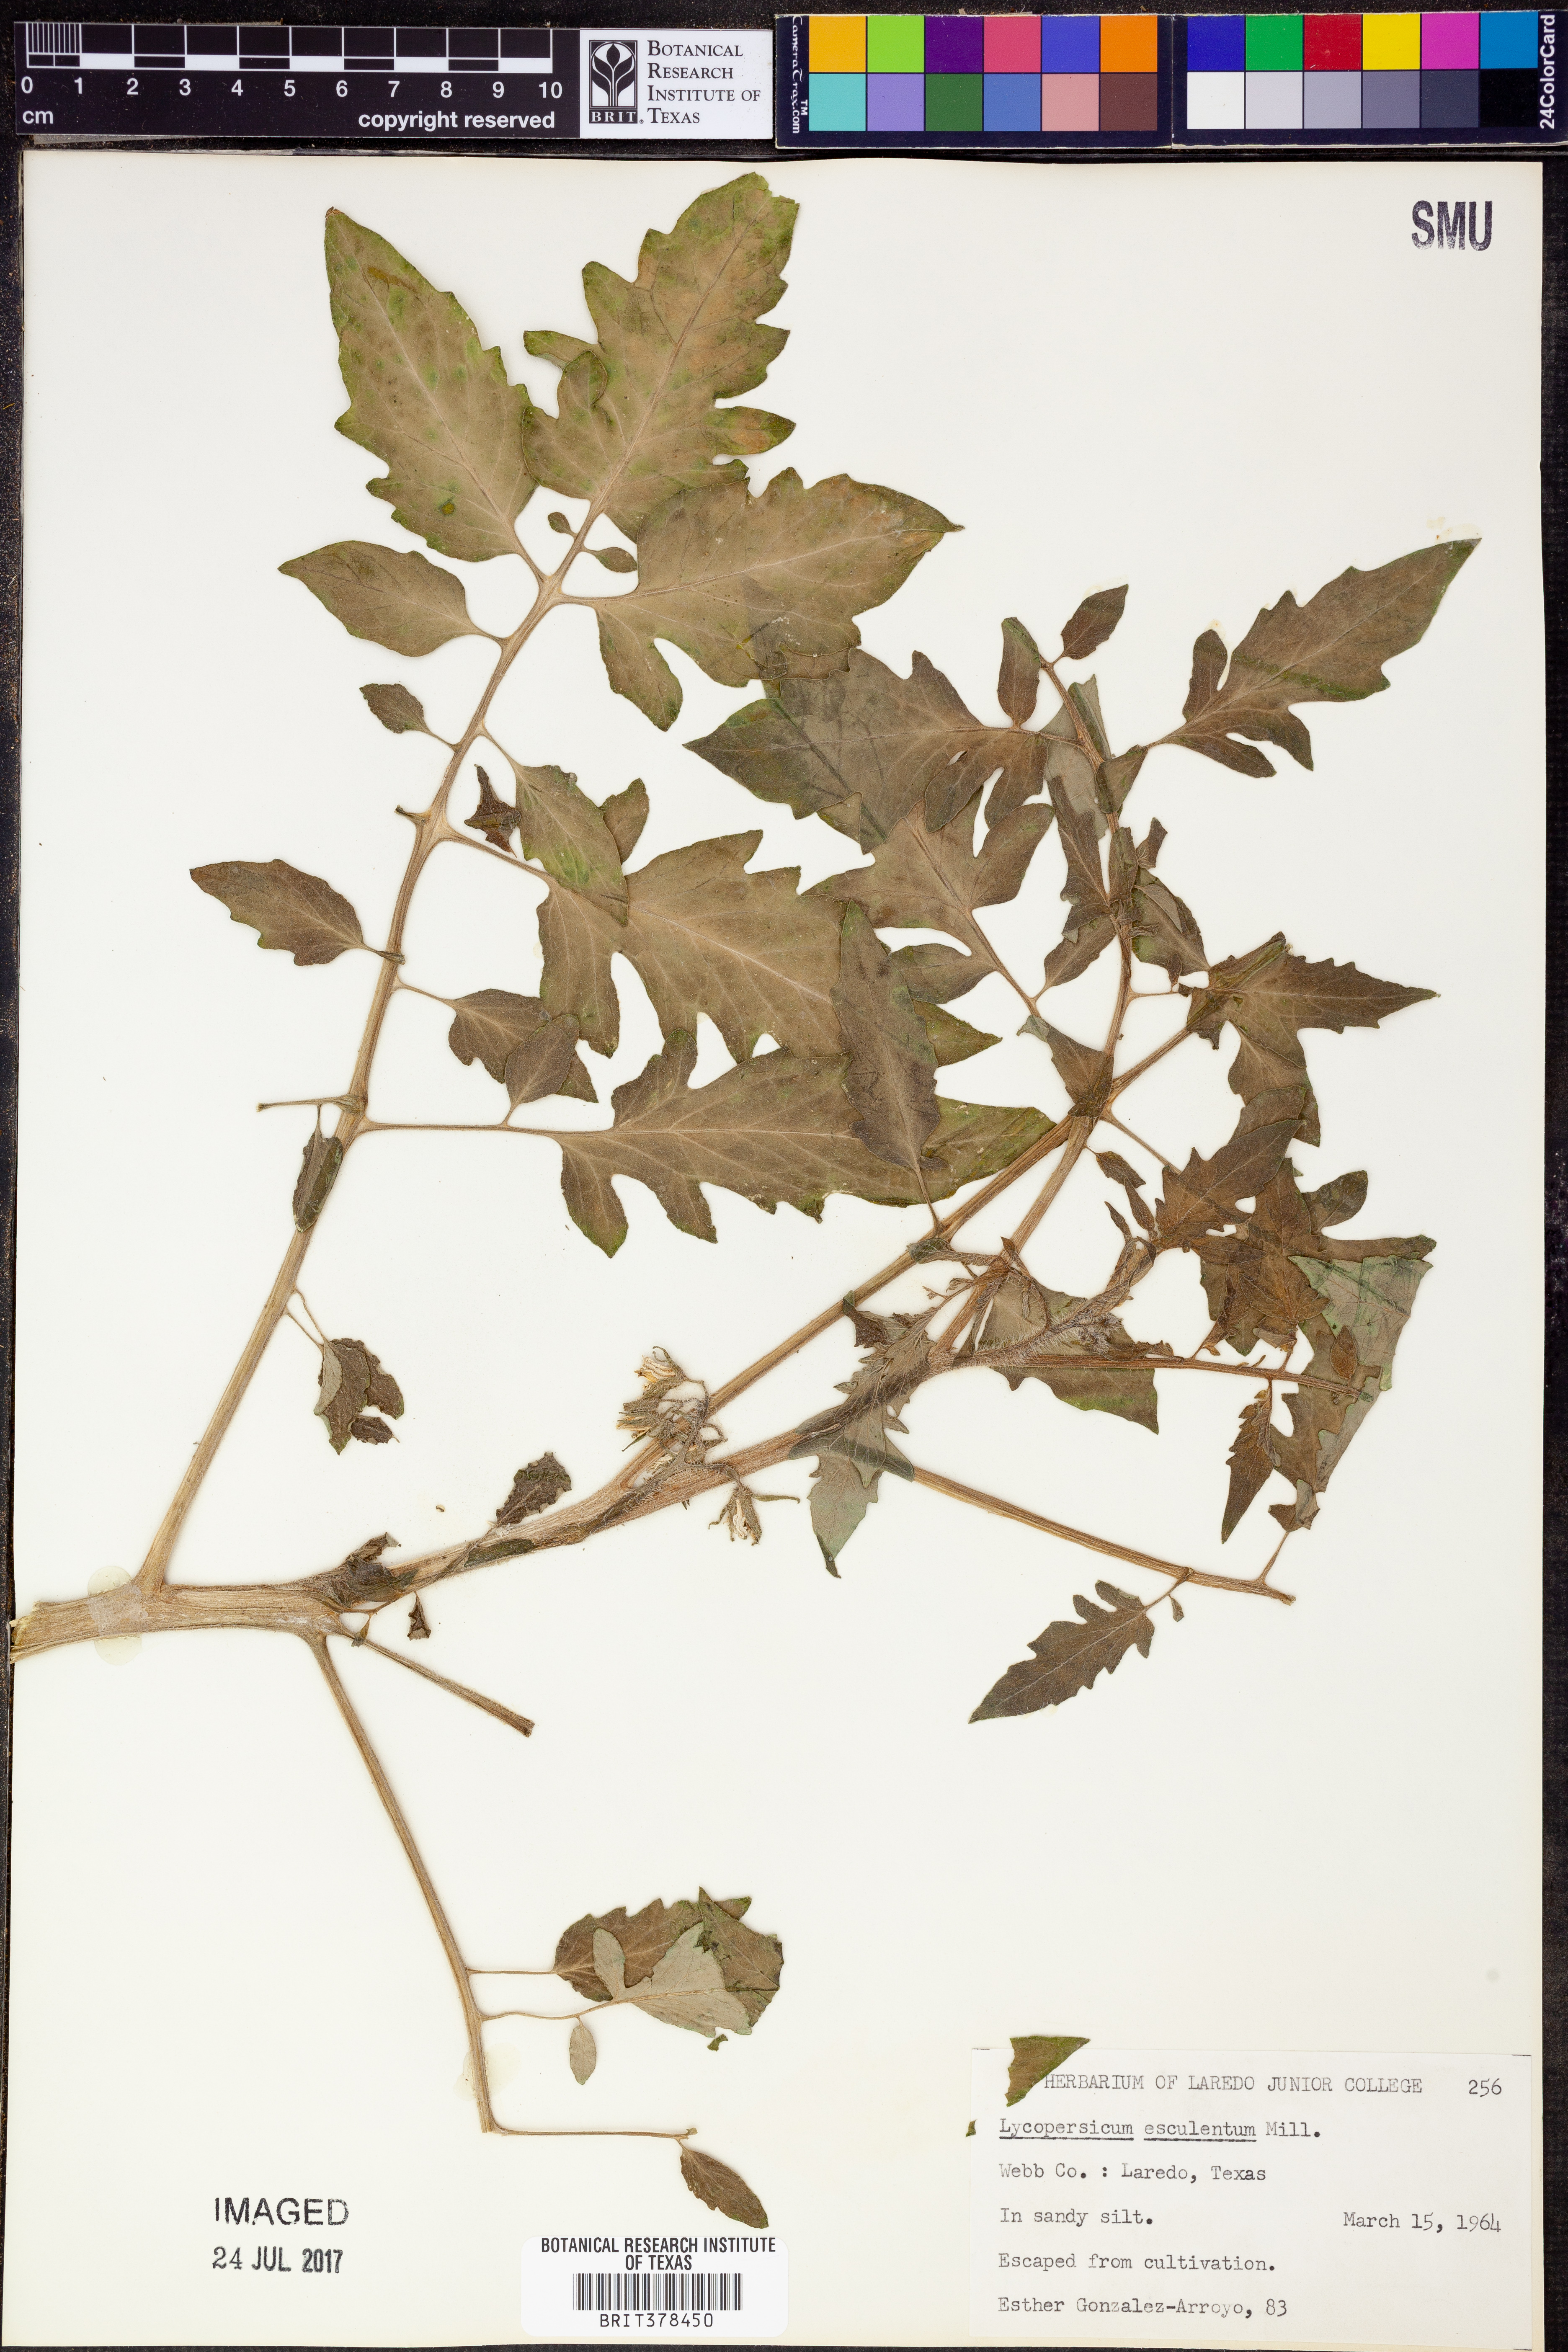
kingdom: Plantae
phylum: Tracheophyta
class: Magnoliopsida
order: Solanales
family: Solanaceae
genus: Solanum
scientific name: Solanum Lycopersicum esculentum
